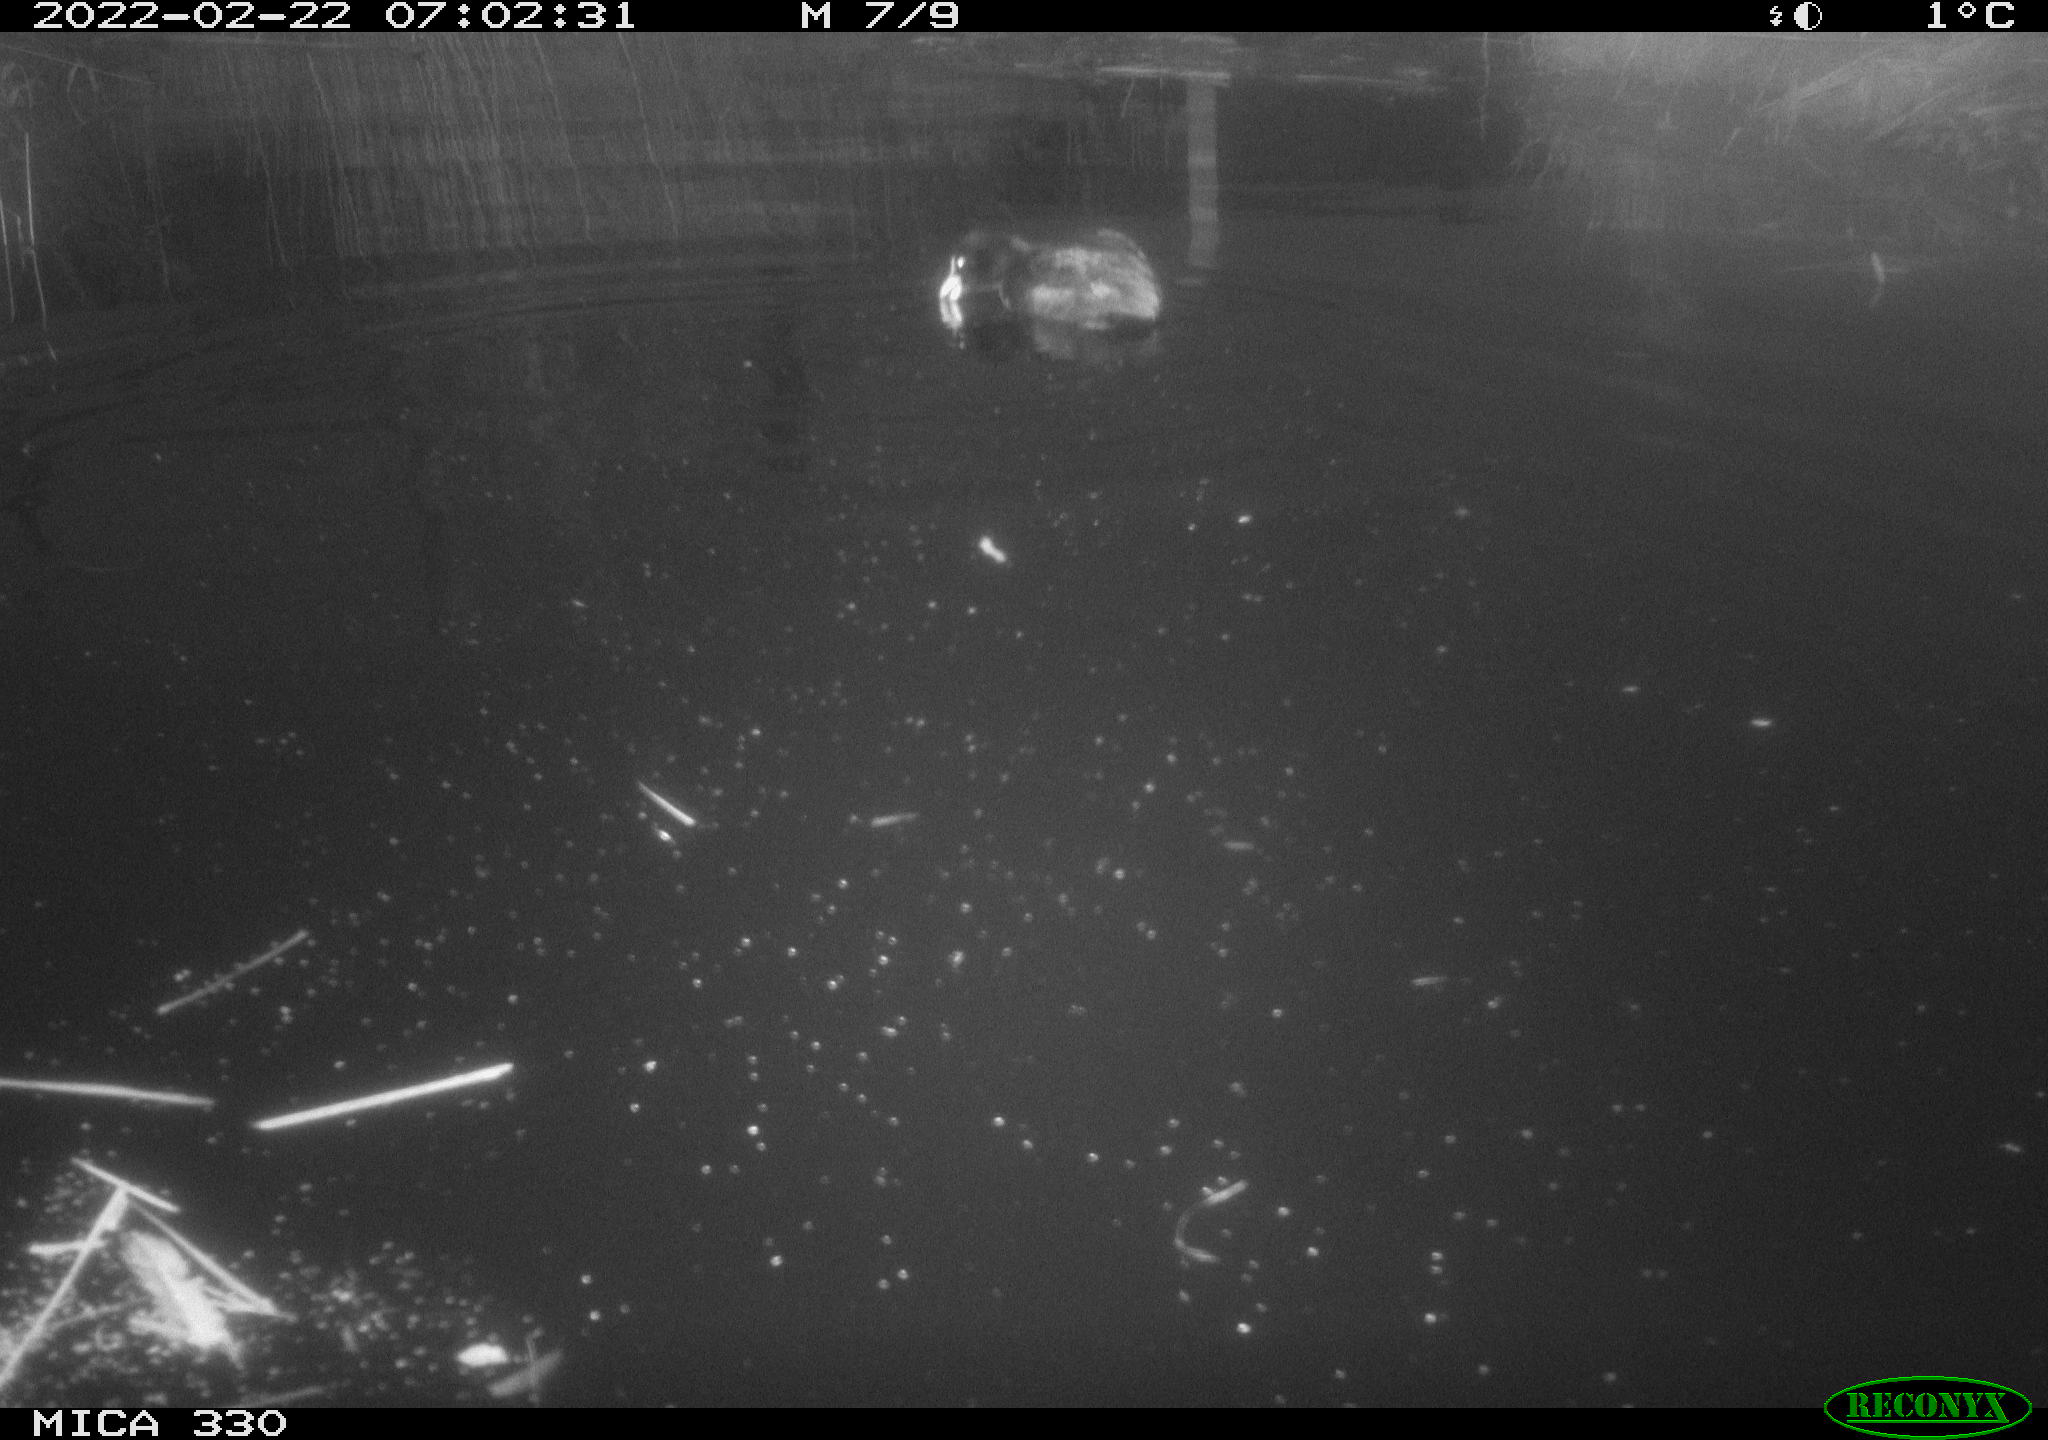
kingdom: Animalia
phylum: Chordata
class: Aves
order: Gruiformes
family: Rallidae
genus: Fulica
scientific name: Fulica atra
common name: Eurasian coot
